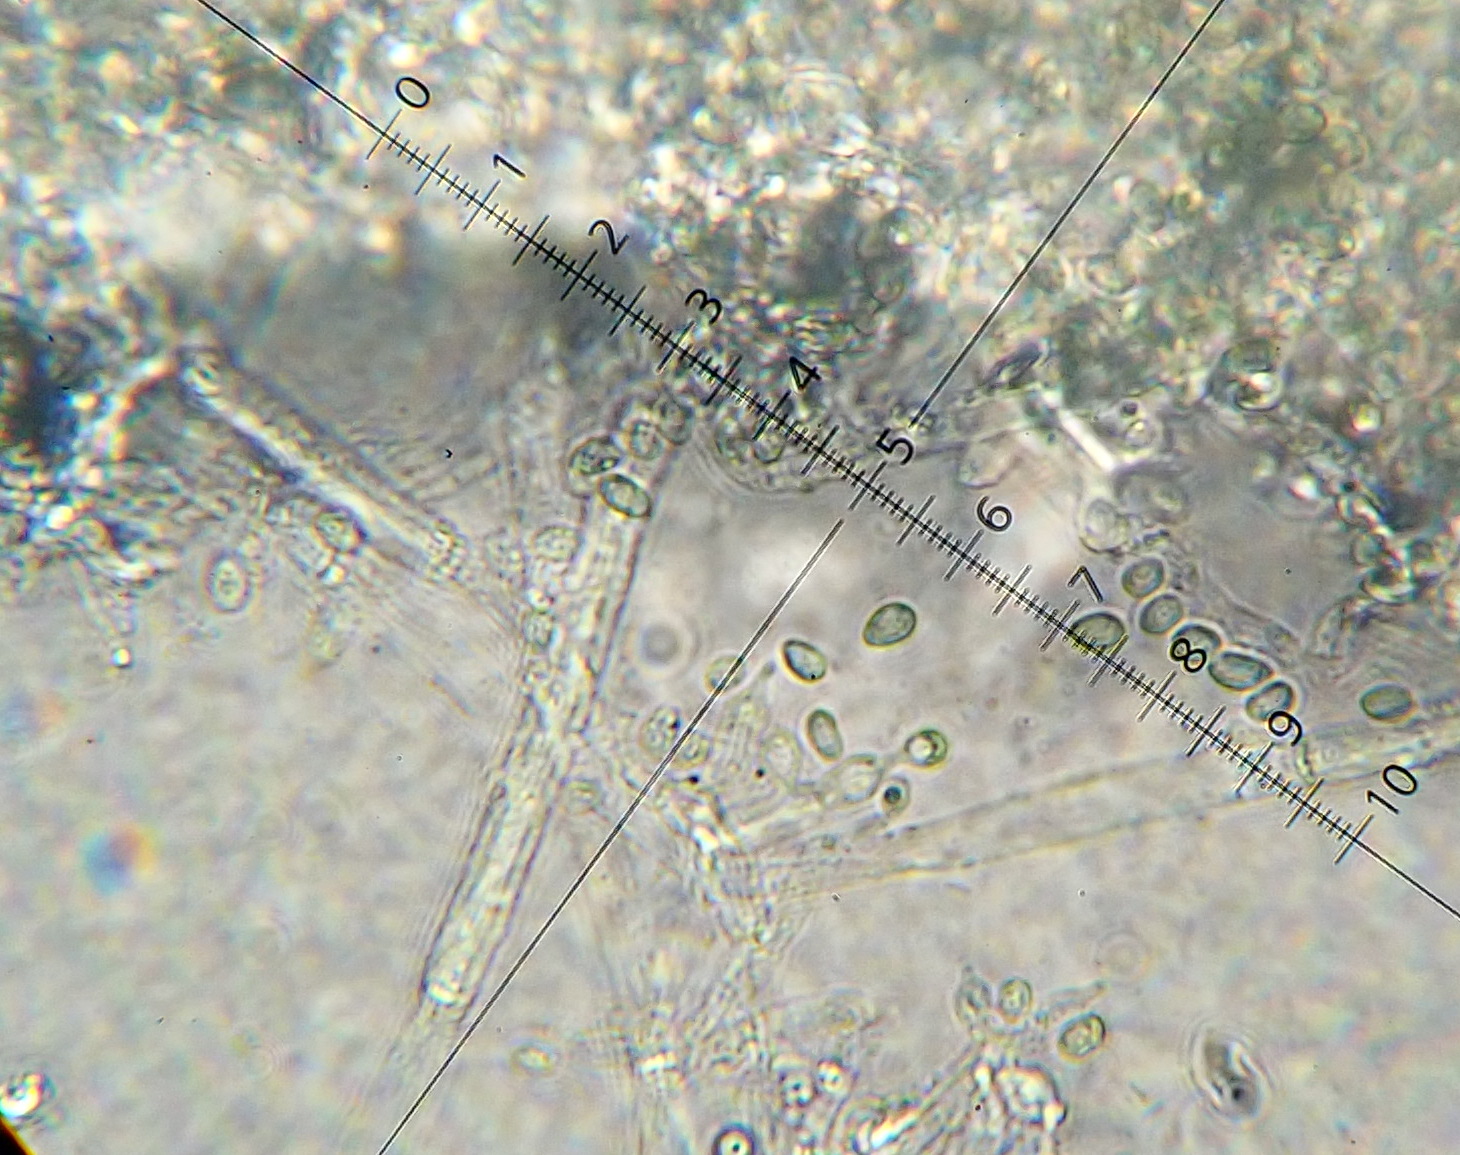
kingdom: Fungi
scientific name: Fungi
